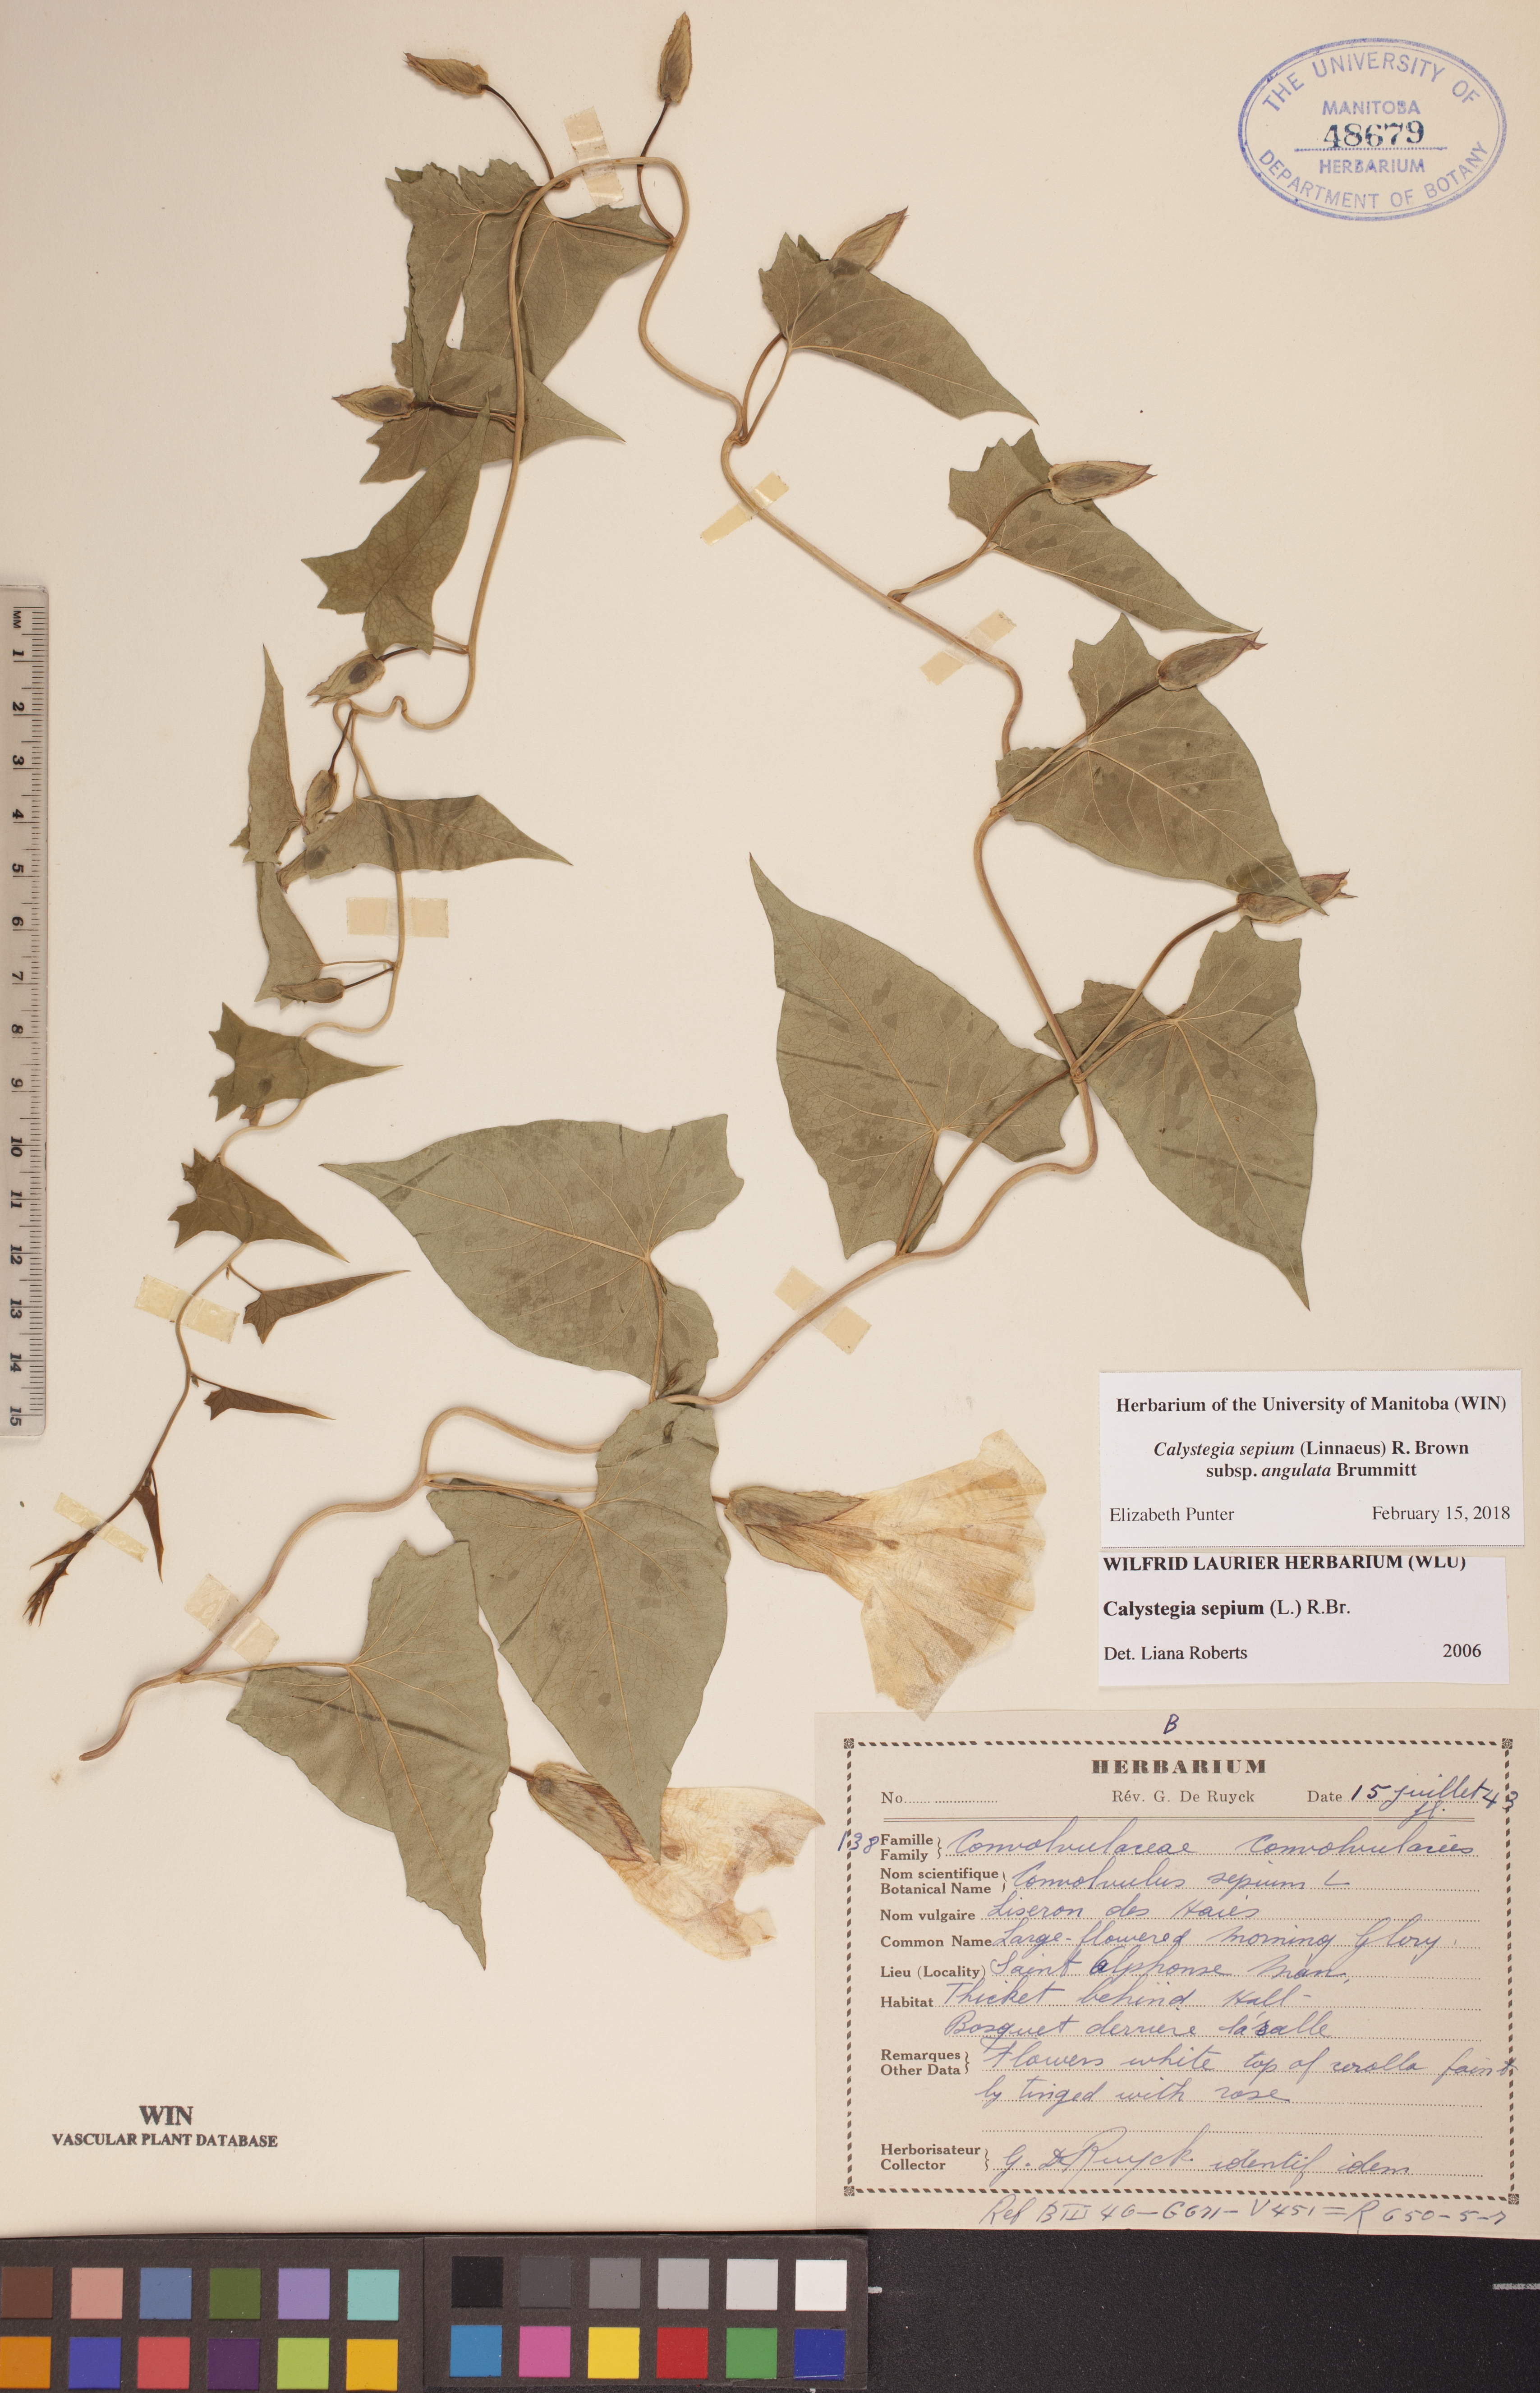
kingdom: Plantae
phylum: Tracheophyta
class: Magnoliopsida
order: Solanales
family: Convolvulaceae
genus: Calystegia
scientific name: Calystegia sepium
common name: Hedge bindweed
